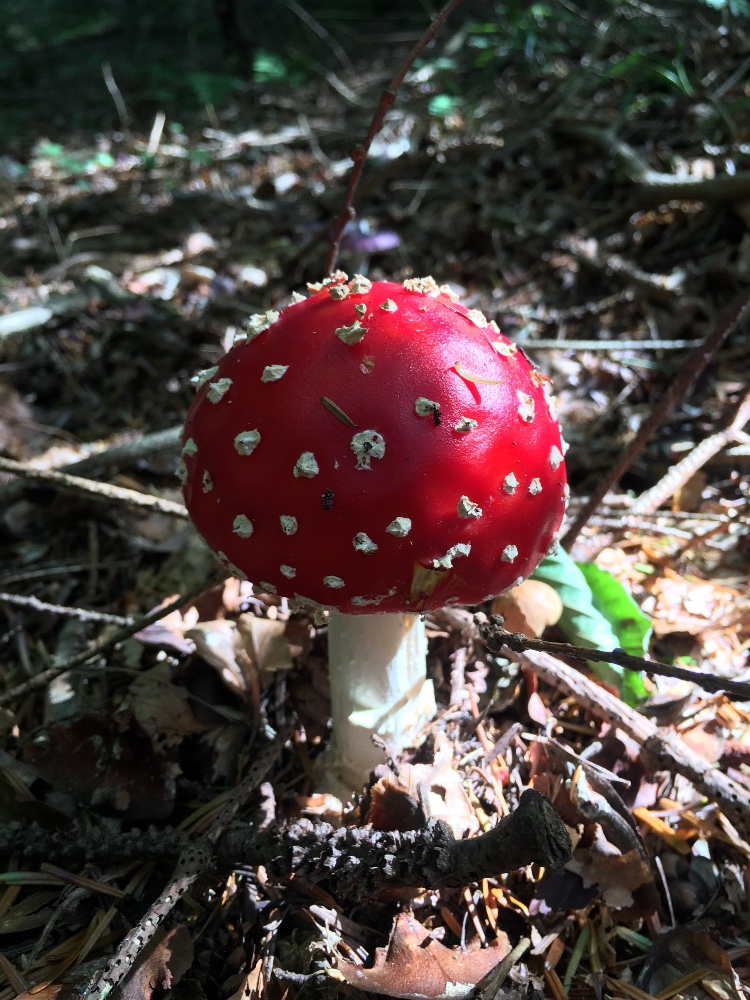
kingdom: Fungi
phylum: Basidiomycota
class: Agaricomycetes
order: Agaricales
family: Amanitaceae
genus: Amanita
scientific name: Amanita muscaria
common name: rød fluesvamp
